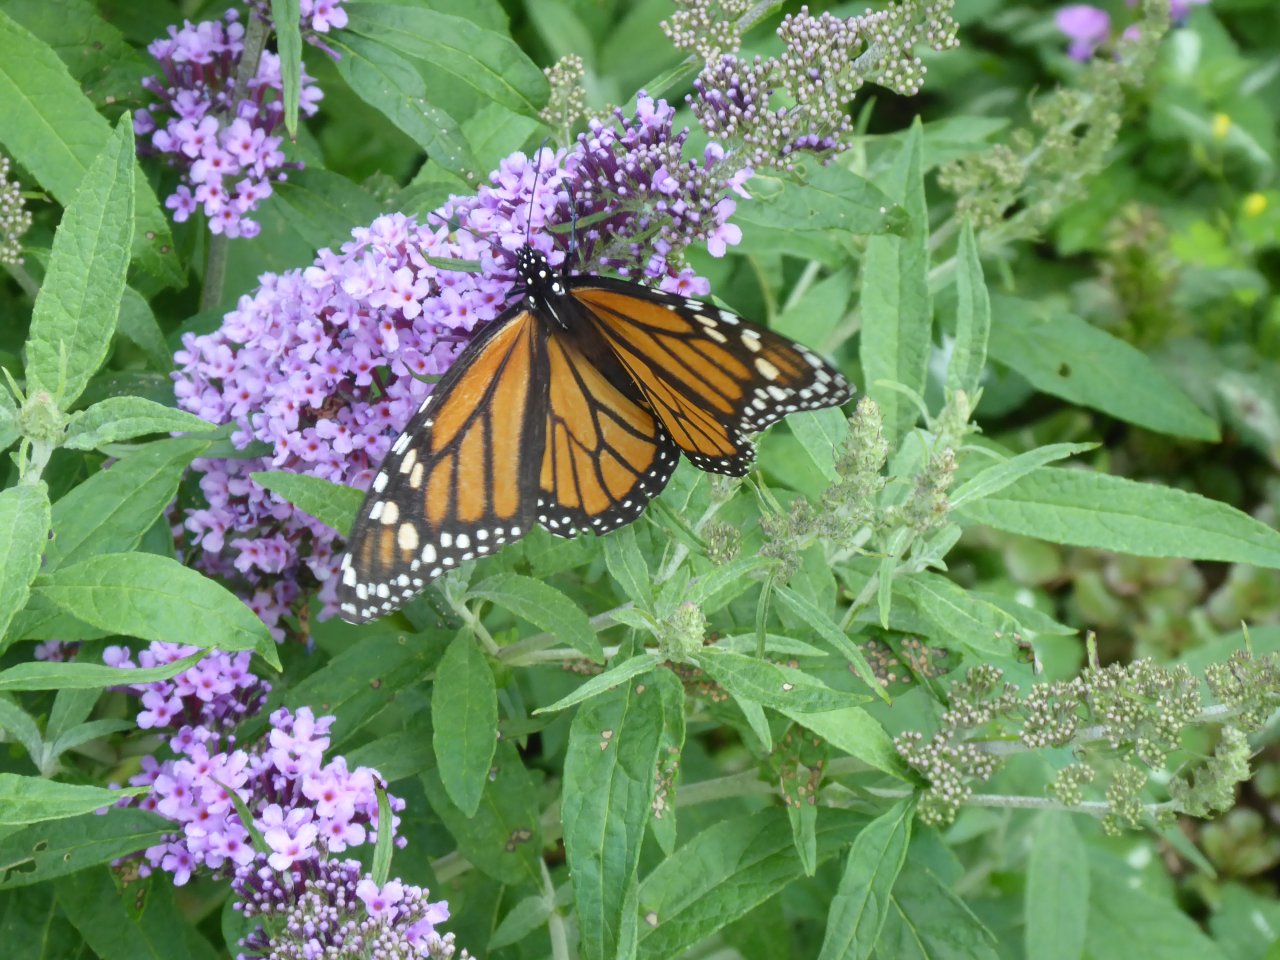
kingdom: Animalia
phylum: Arthropoda
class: Insecta
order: Lepidoptera
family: Nymphalidae
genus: Danaus
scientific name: Danaus plexippus
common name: Monarch
